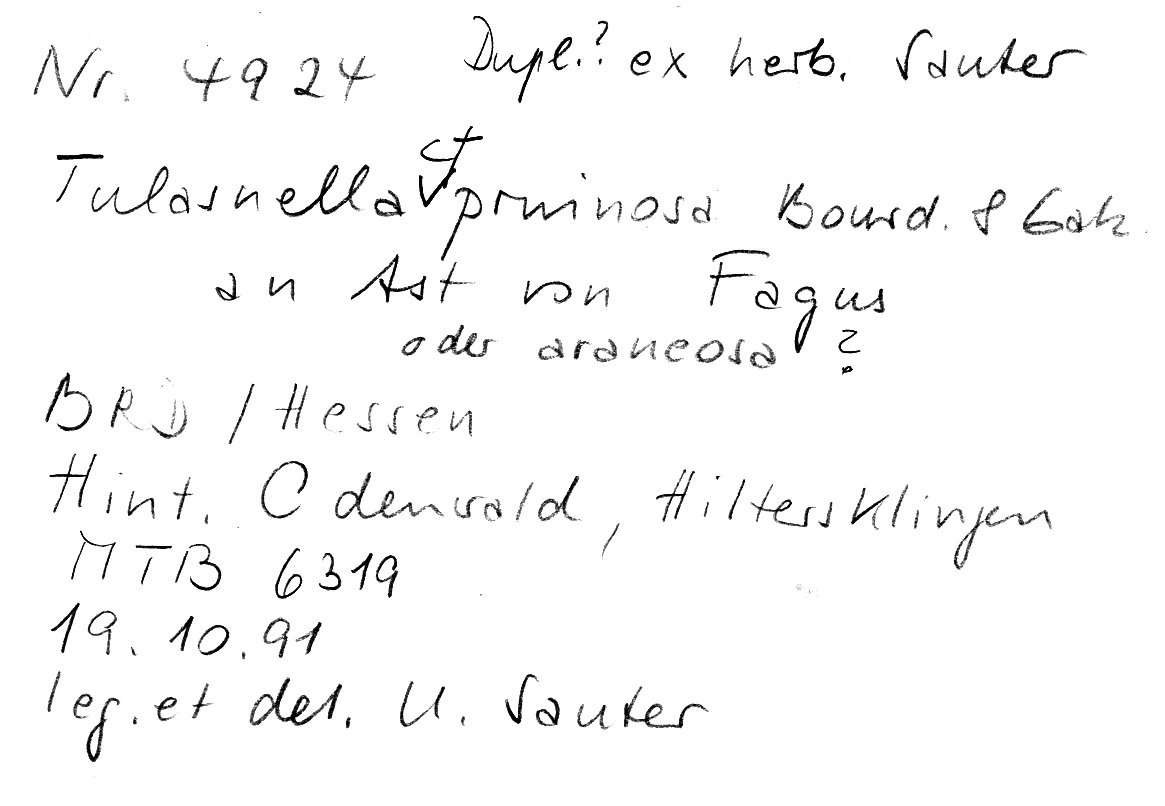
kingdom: Fungi
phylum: Basidiomycota
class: Agaricomycetes
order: Cantharellales
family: Tulasnellaceae
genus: Tulasnella
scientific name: Tulasnella pruinosa
